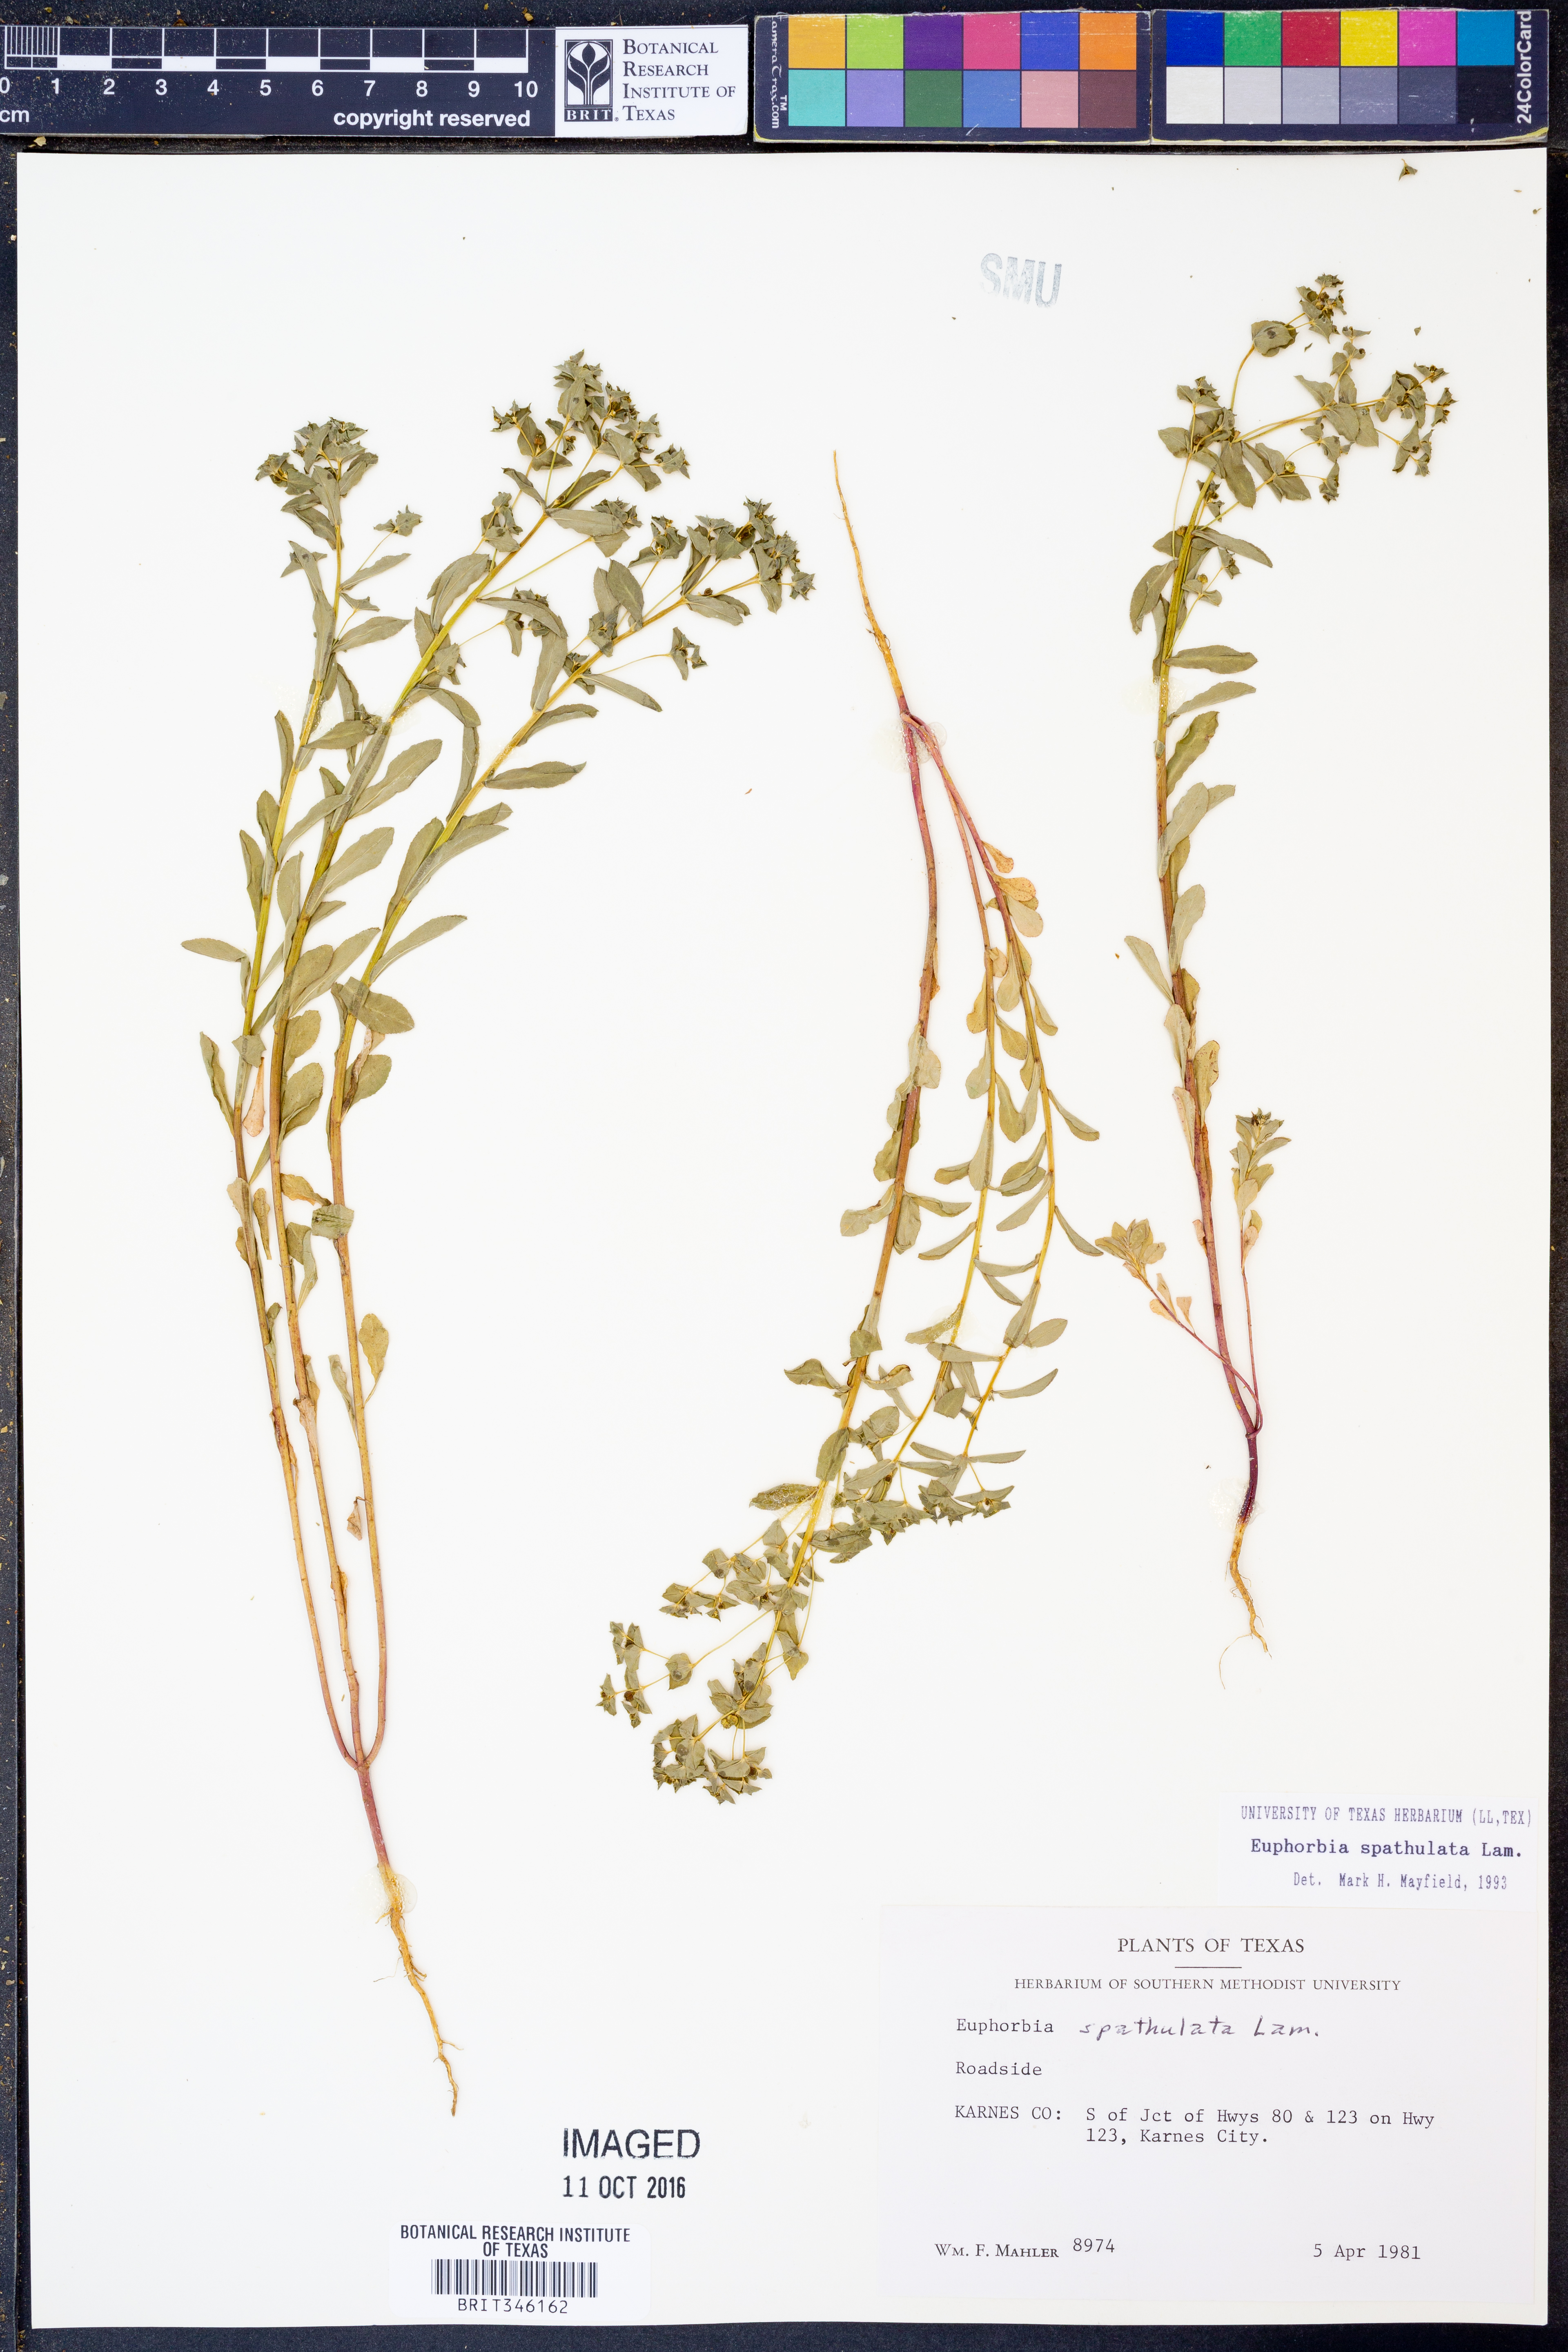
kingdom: Plantae
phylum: Tracheophyta
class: Magnoliopsida
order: Malpighiales
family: Euphorbiaceae
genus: Euphorbia
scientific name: Euphorbia spathulata
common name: Blunt spurge
